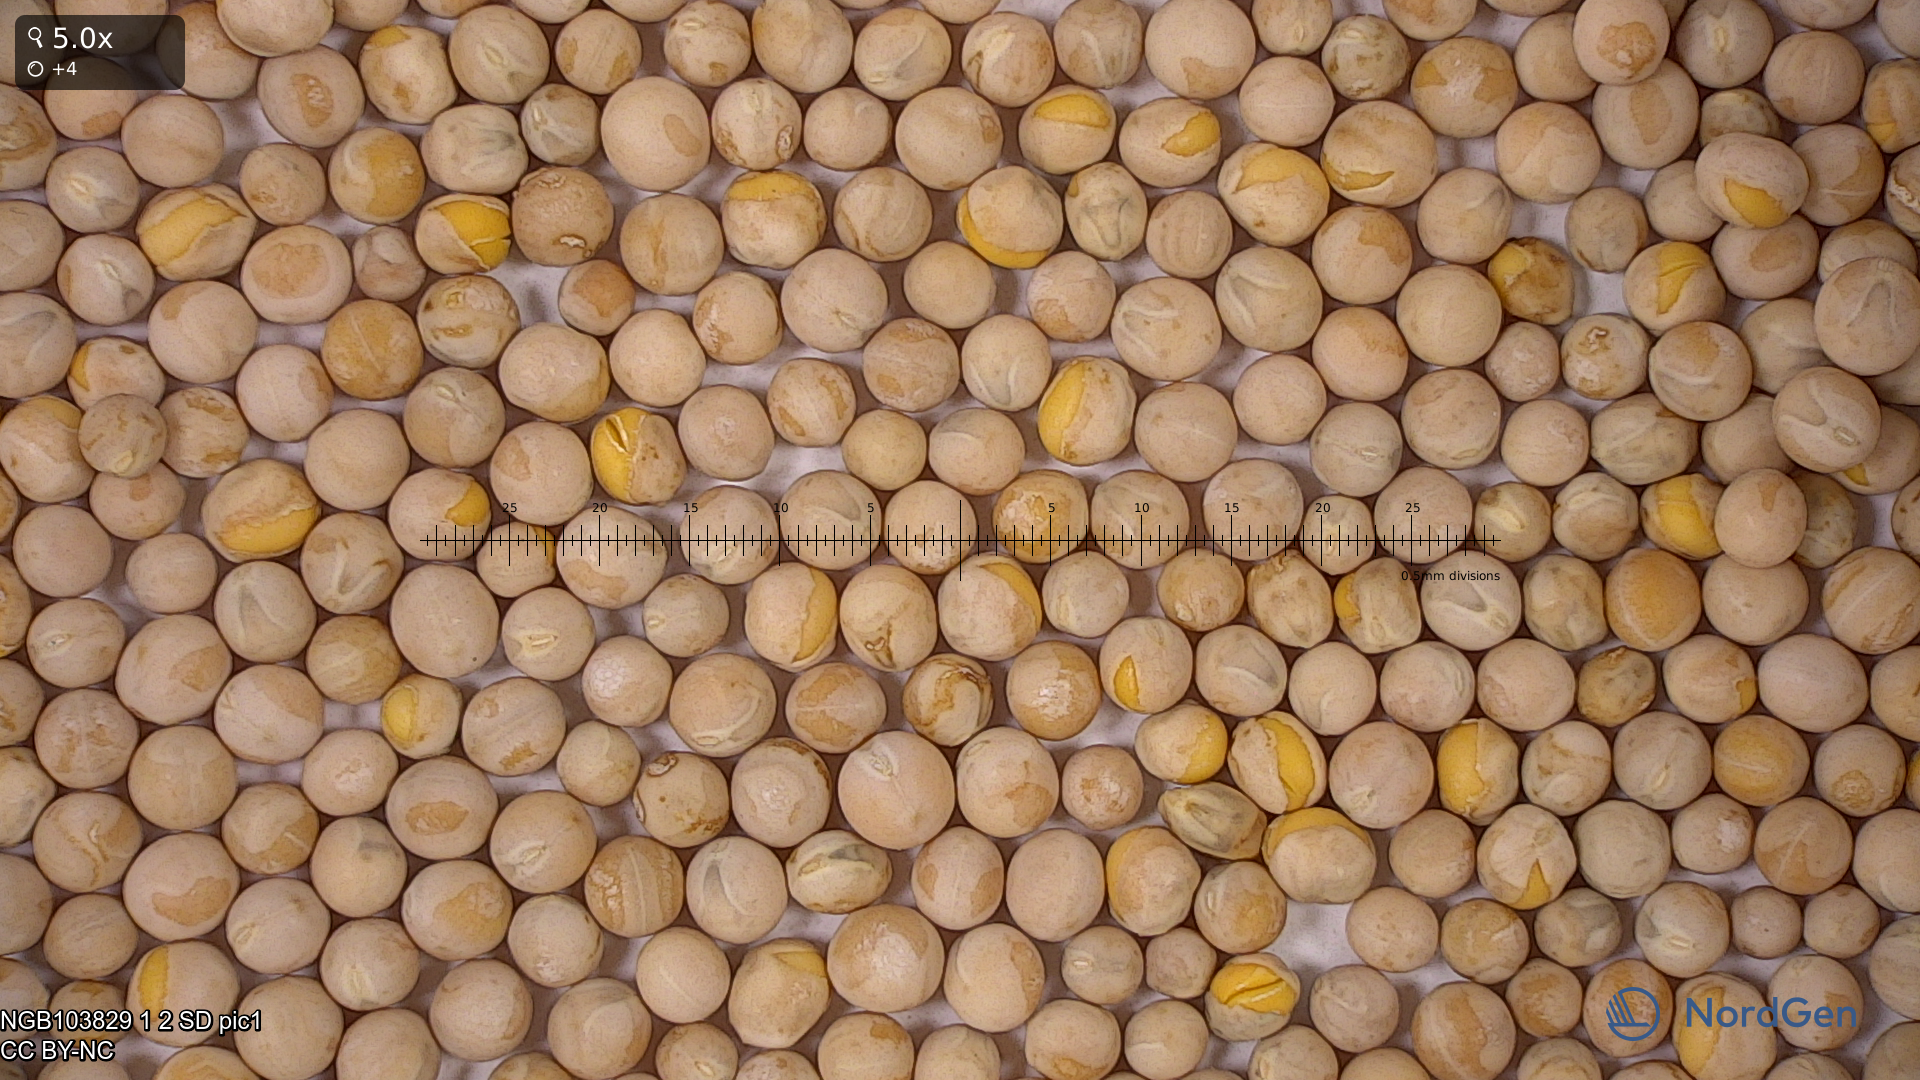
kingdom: Plantae
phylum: Tracheophyta
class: Magnoliopsida
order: Fabales
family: Fabaceae
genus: Lathyrus
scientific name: Lathyrus oleraceus
